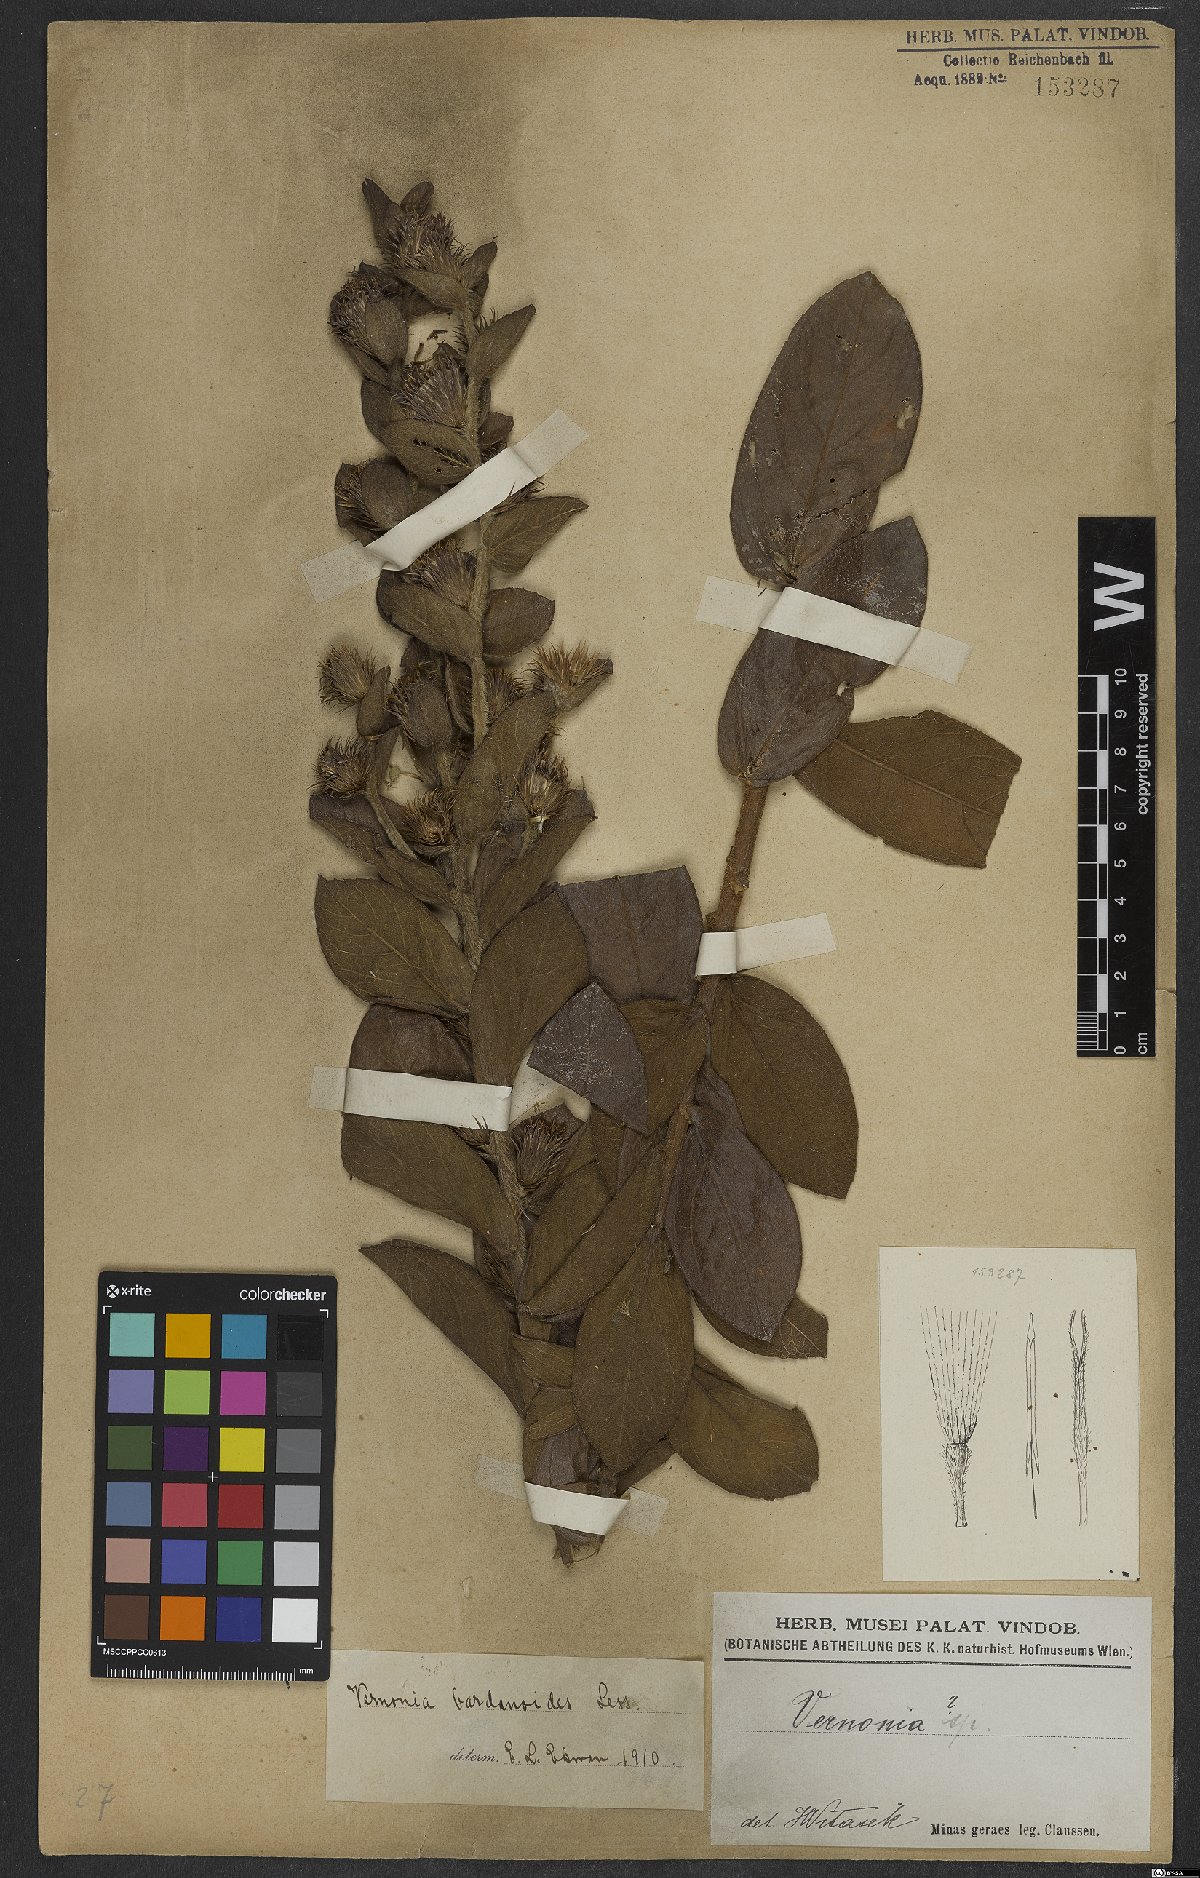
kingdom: Plantae
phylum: Tracheophyta
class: Magnoliopsida
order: Asterales
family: Asteraceae
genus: Lessingianthus
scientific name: Lessingianthus bardanioides
